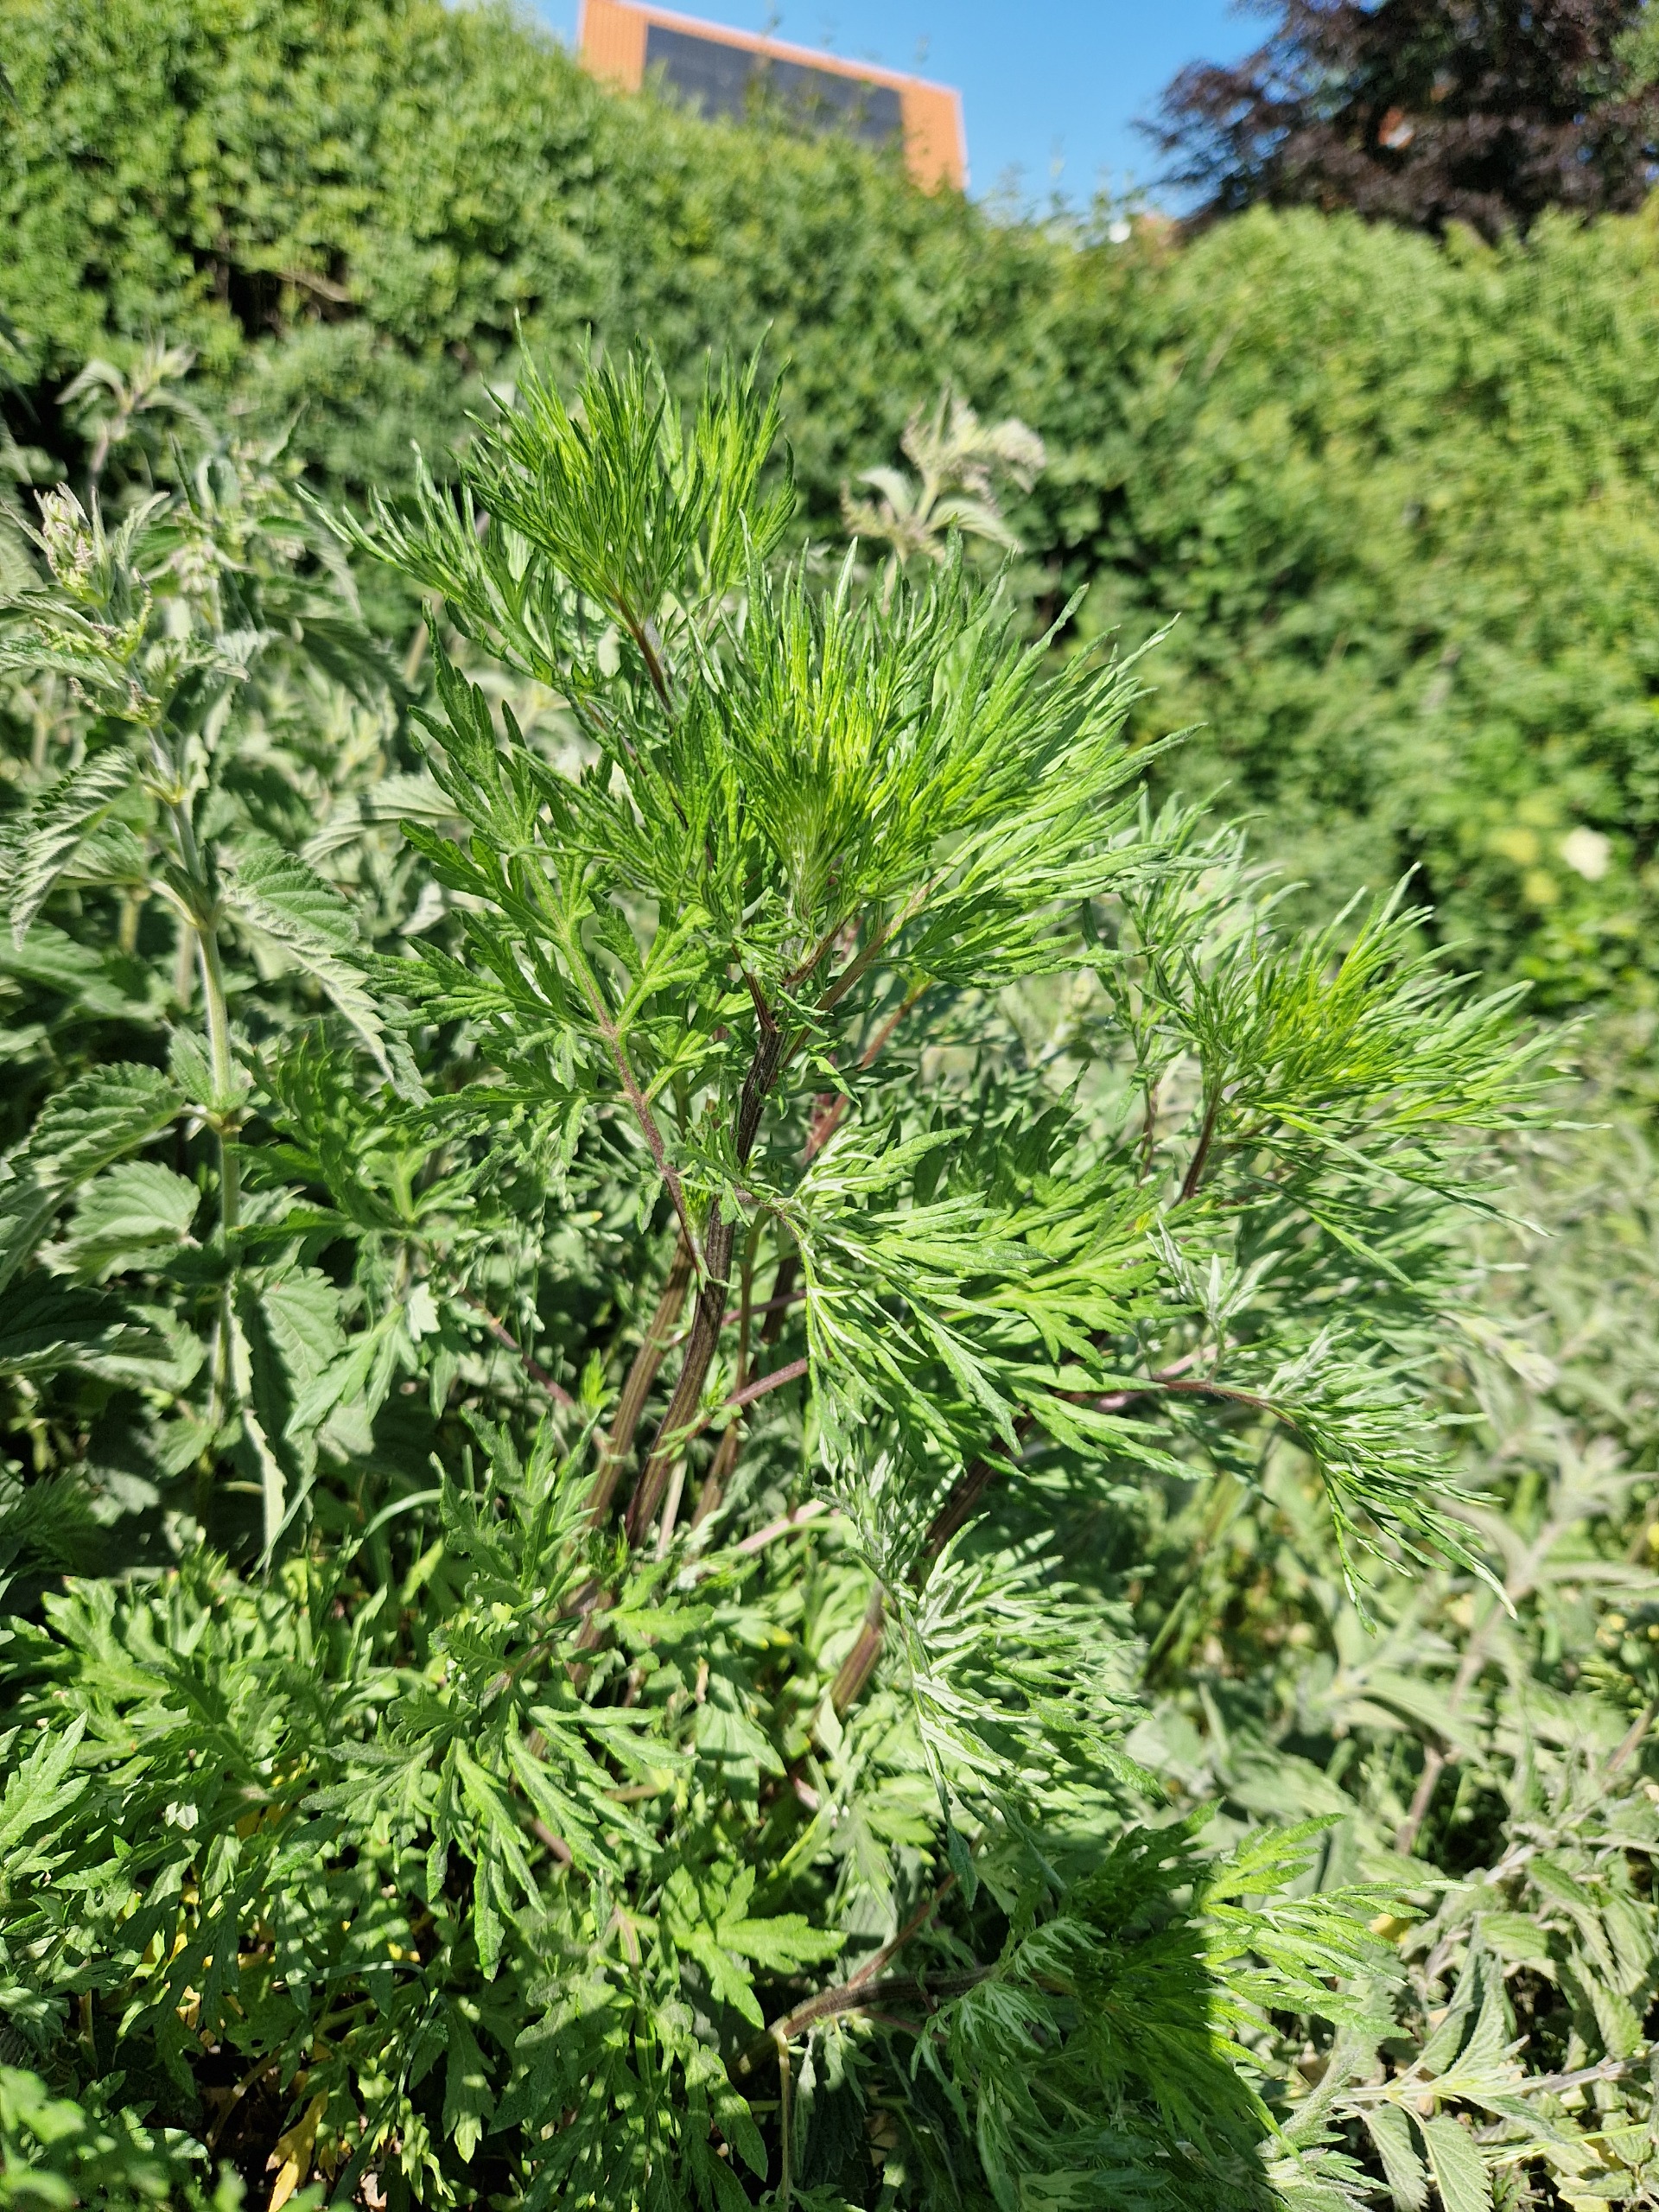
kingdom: Plantae
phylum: Tracheophyta
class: Magnoliopsida
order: Asterales
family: Asteraceae
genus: Artemisia
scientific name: Artemisia vulgaris
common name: Grå-bynke
